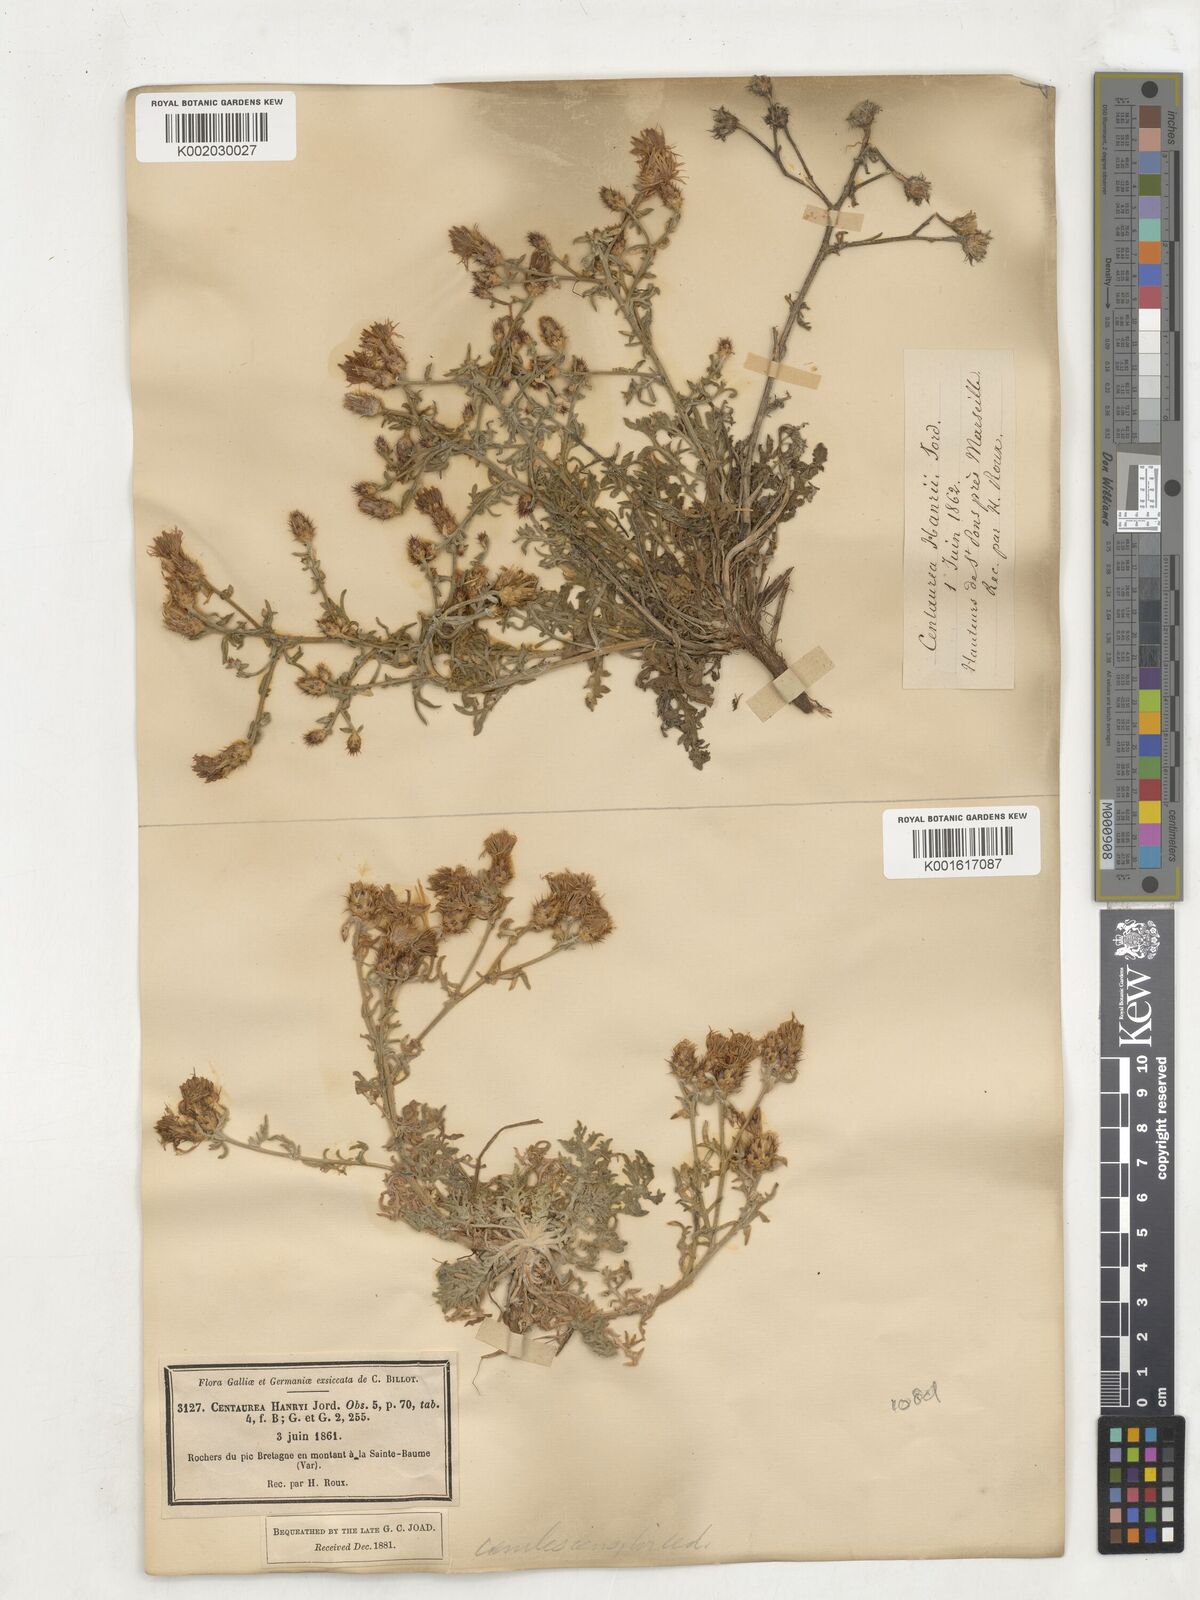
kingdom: Plantae
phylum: Tracheophyta
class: Magnoliopsida
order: Asterales
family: Asteraceae
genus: Centaurea
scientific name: Centaurea hanryi
